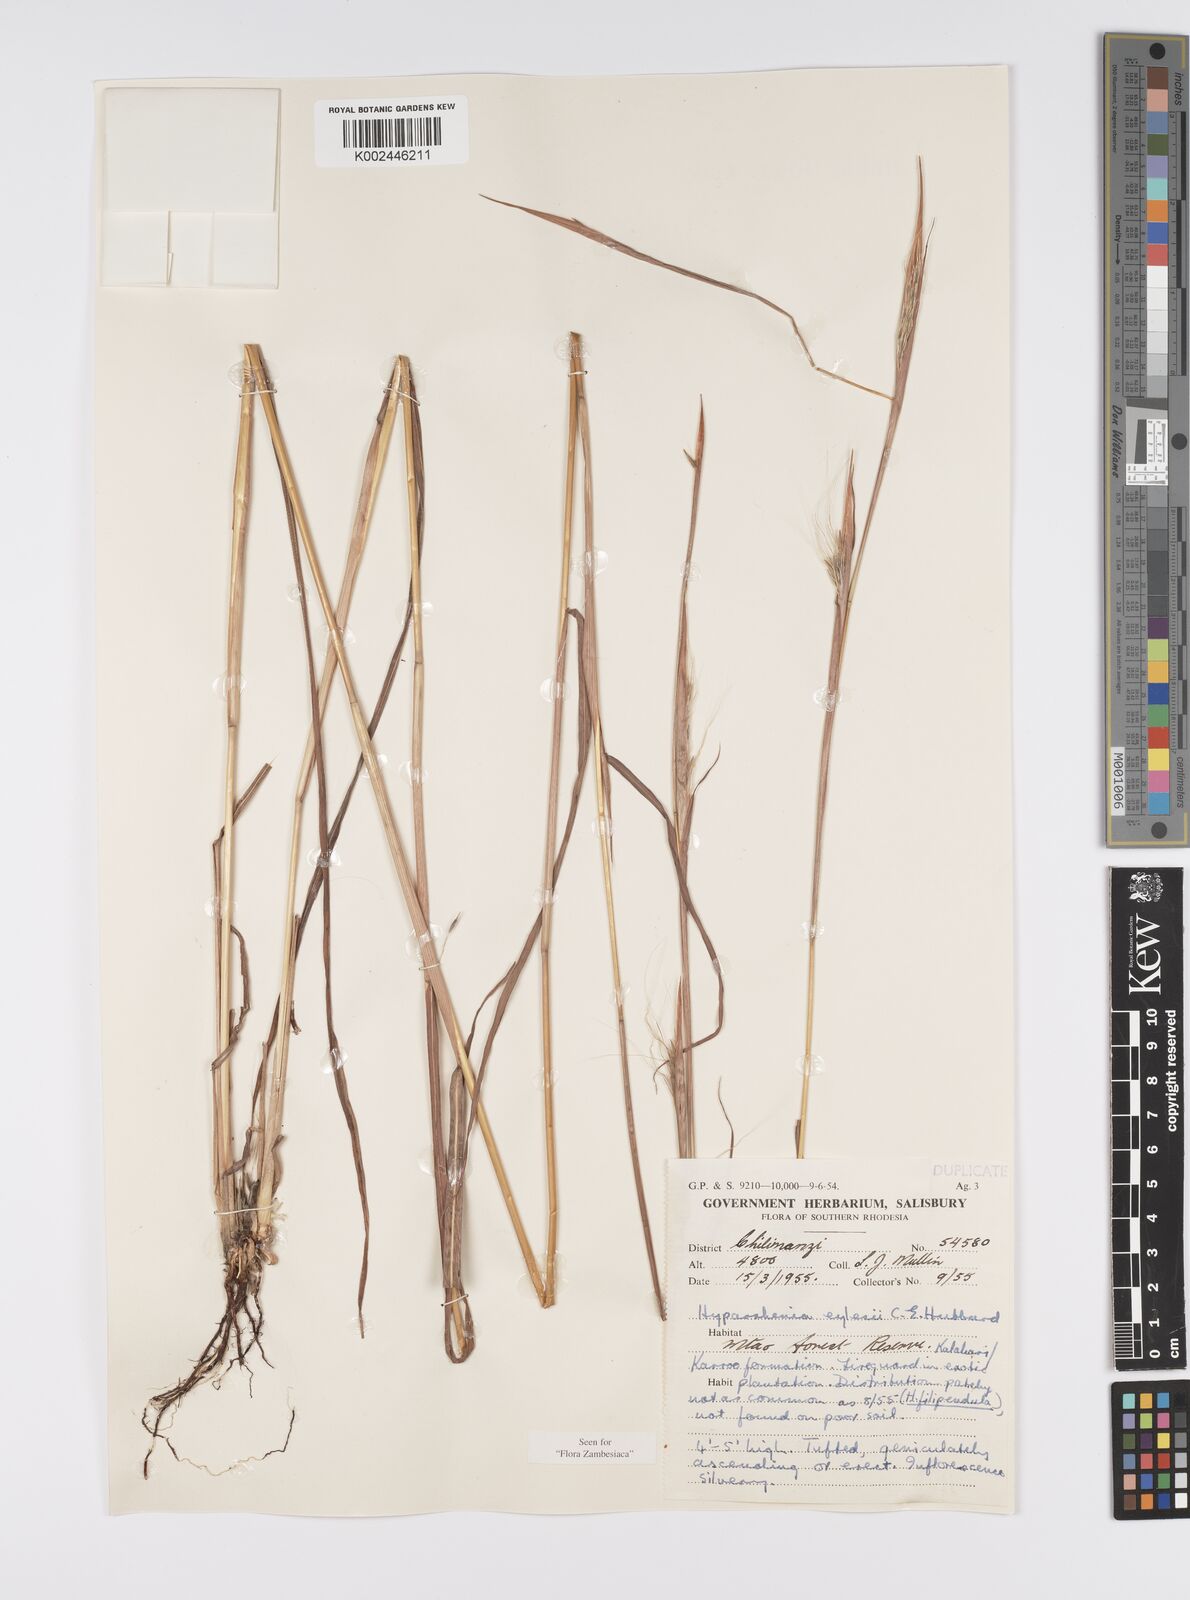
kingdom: Plantae
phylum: Tracheophyta
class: Liliopsida
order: Poales
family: Poaceae
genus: Elymandra
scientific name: Elymandra grallata
